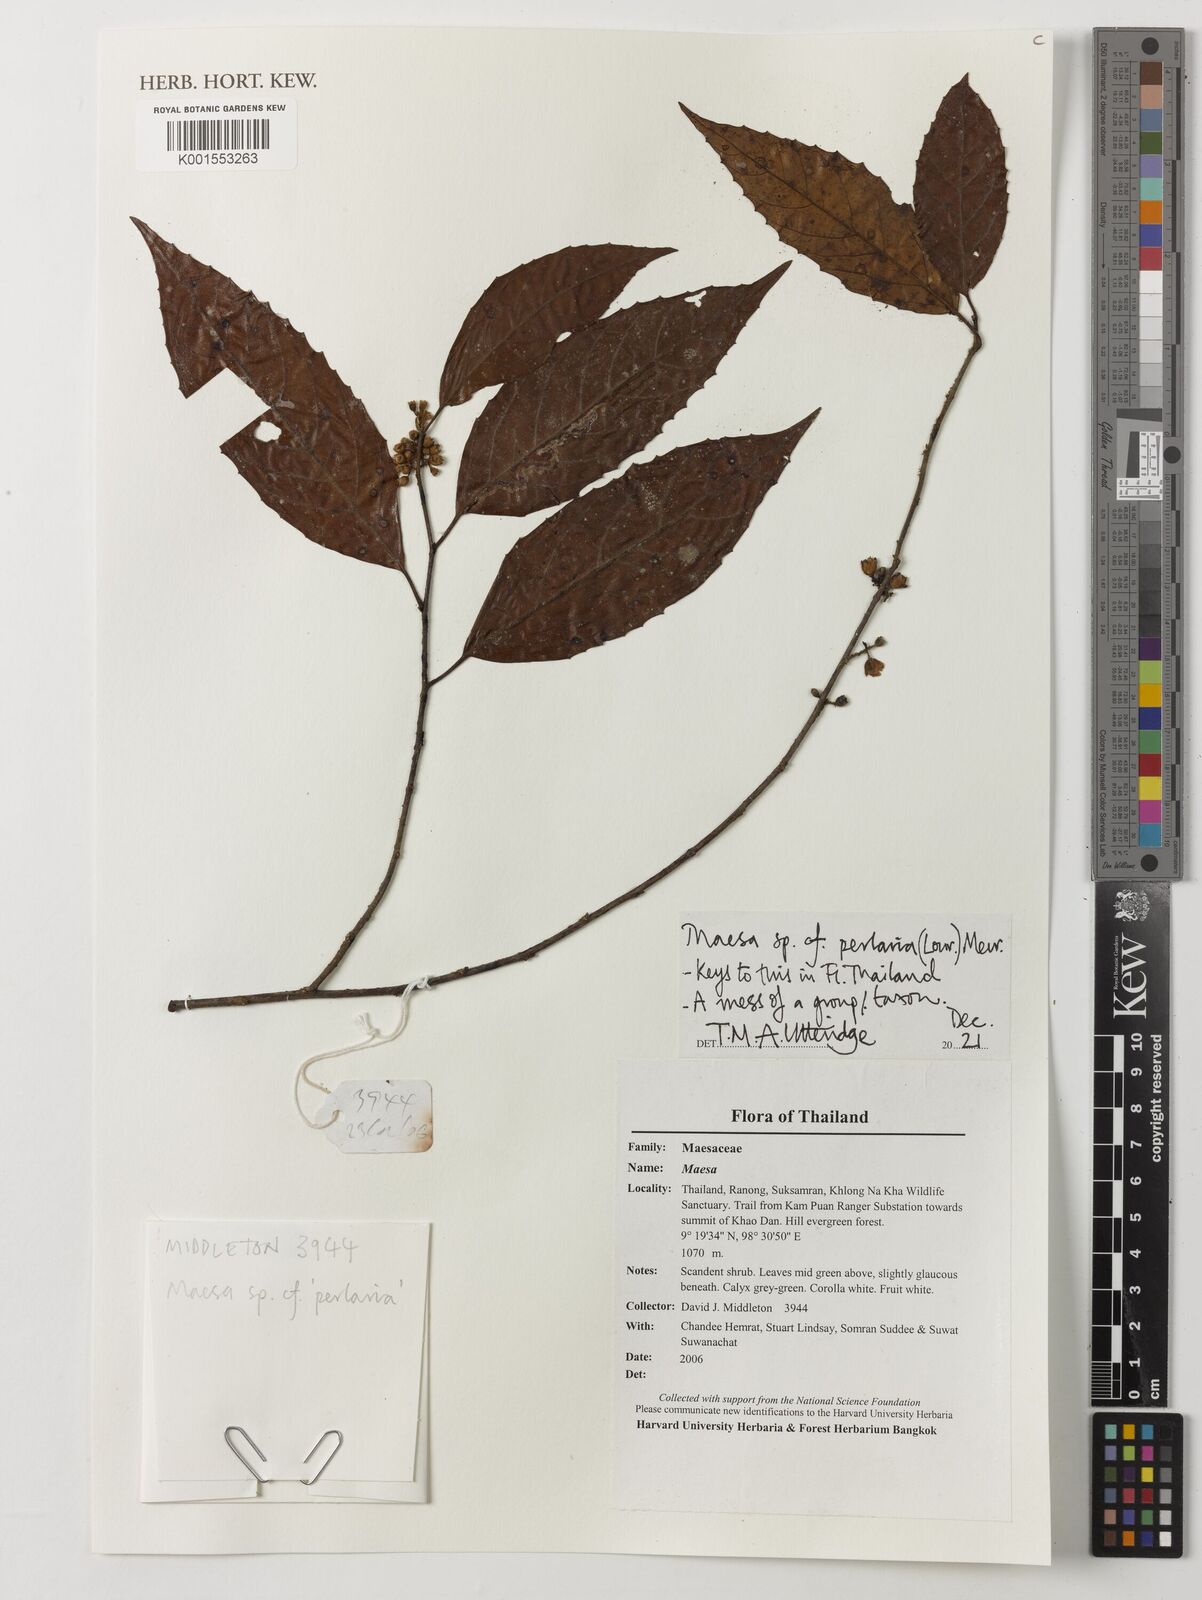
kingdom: Plantae
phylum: Tracheophyta
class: Magnoliopsida
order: Ericales
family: Primulaceae
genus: Maesa
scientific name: Maesa perlaria
